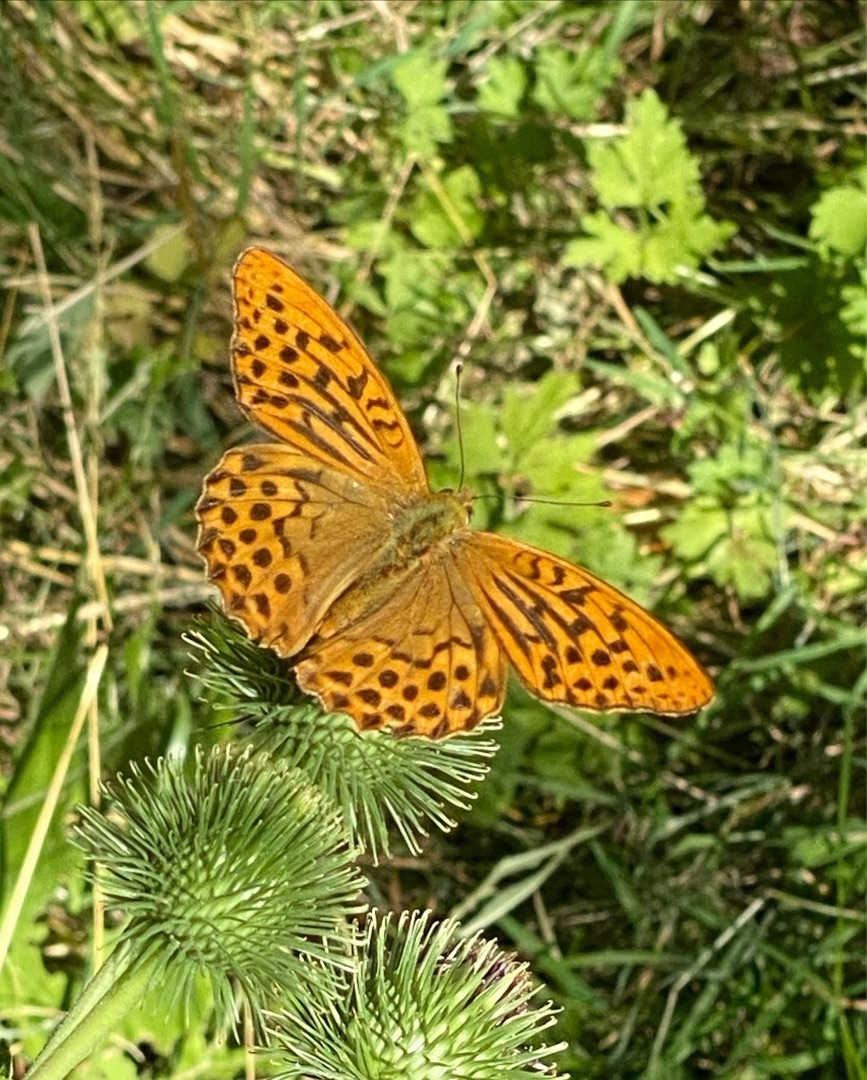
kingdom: Animalia
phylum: Arthropoda
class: Insecta
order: Lepidoptera
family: Nymphalidae
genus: Argynnis
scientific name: Argynnis paphia
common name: Kejserkåbe
